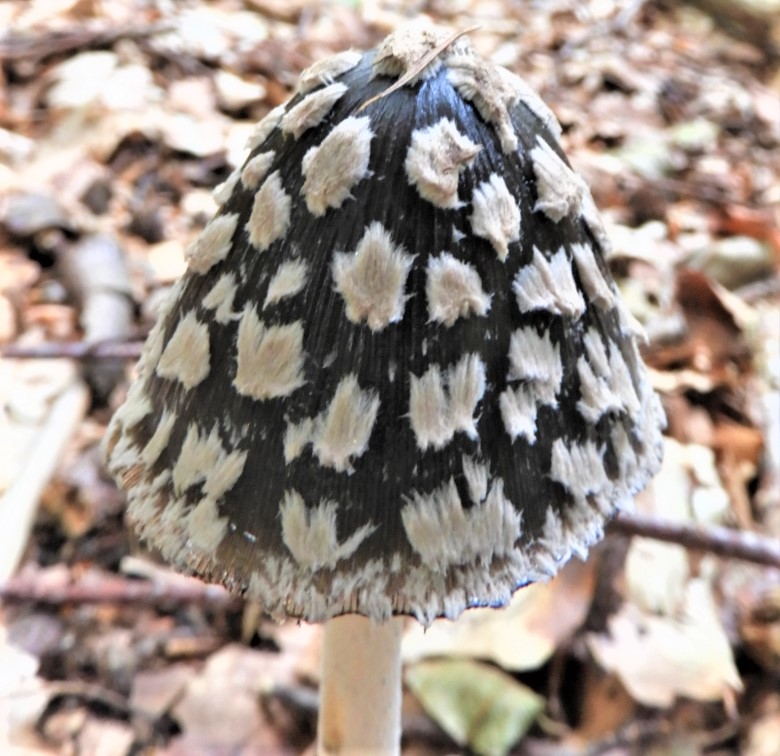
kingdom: Fungi
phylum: Basidiomycota
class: Agaricomycetes
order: Agaricales
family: Psathyrellaceae
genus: Coprinopsis
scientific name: Coprinopsis picacea
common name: skade-blækhat
